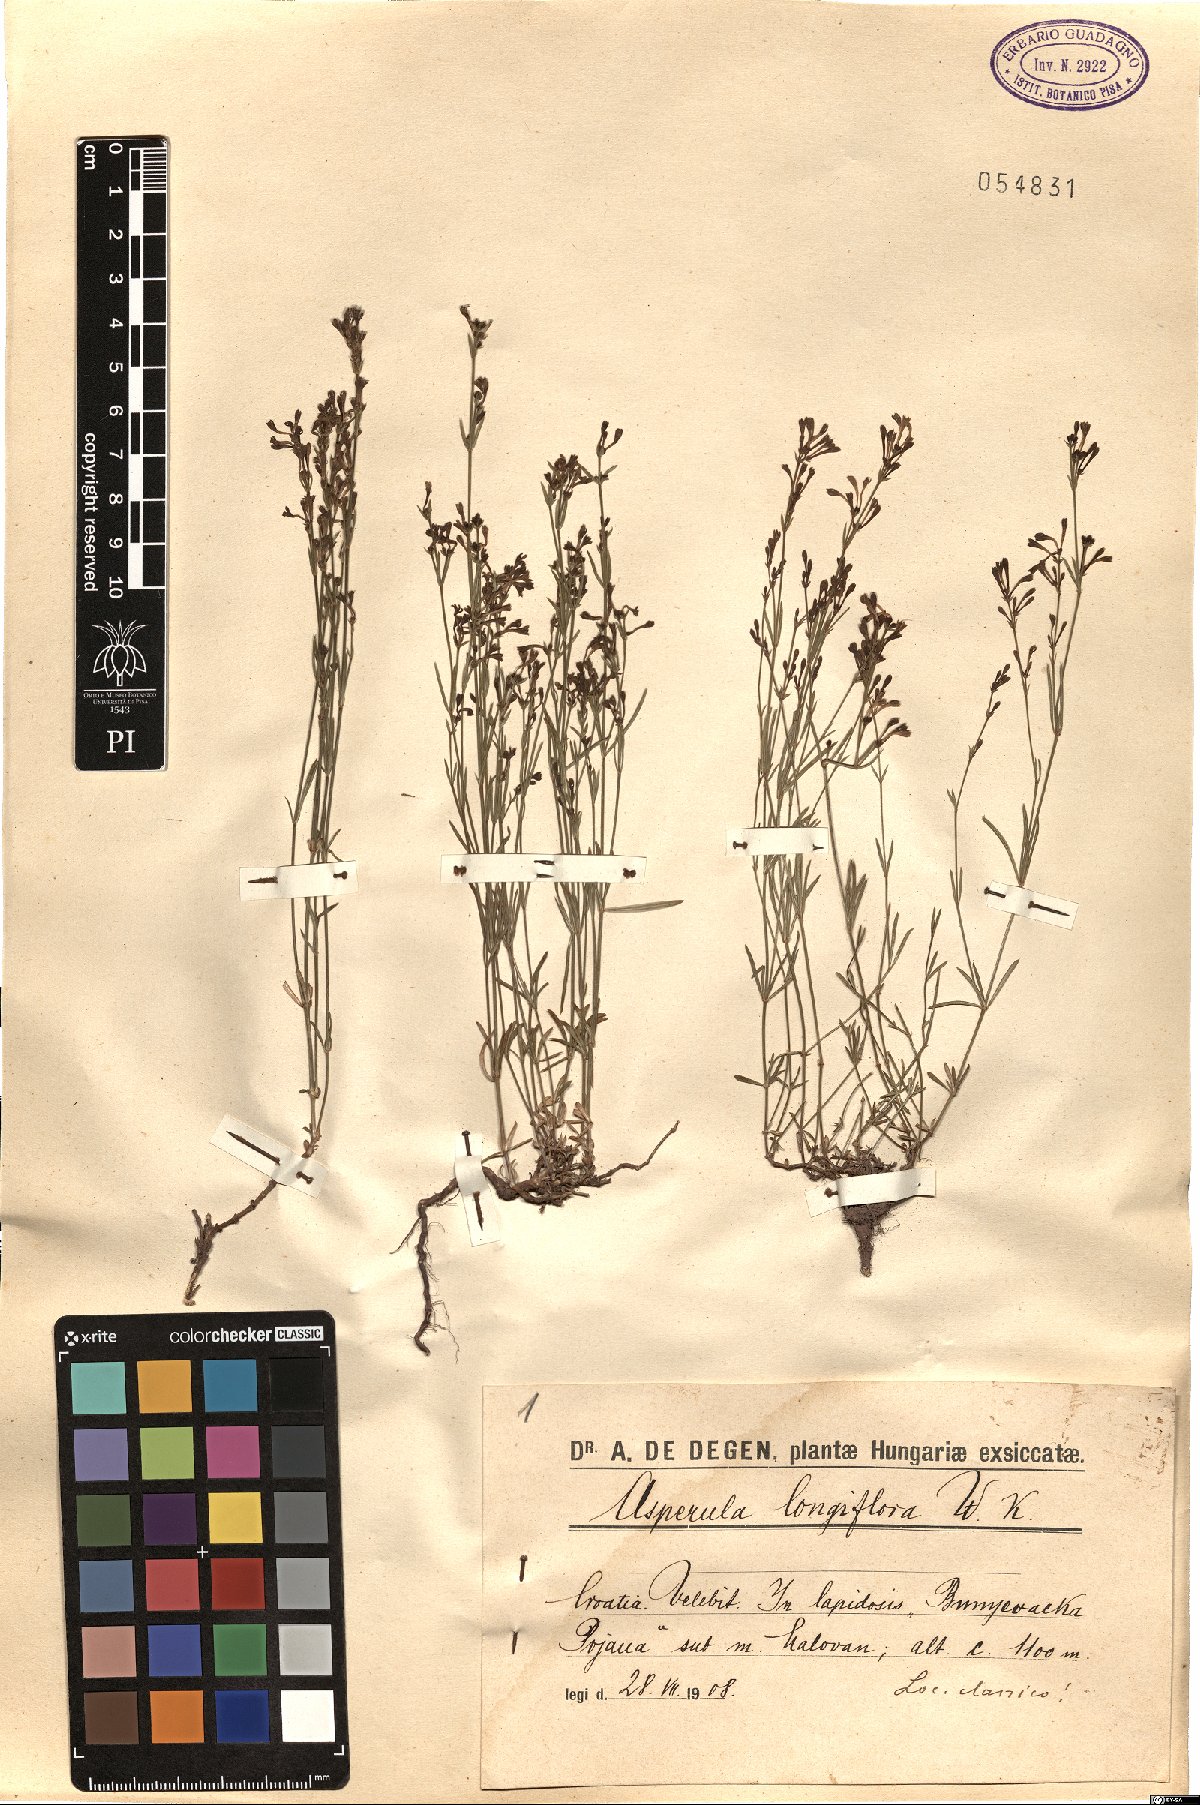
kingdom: Plantae
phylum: Tracheophyta
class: Magnoliopsida
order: Gentianales
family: Rubiaceae
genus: Cynanchica
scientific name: Cynanchica aristata
